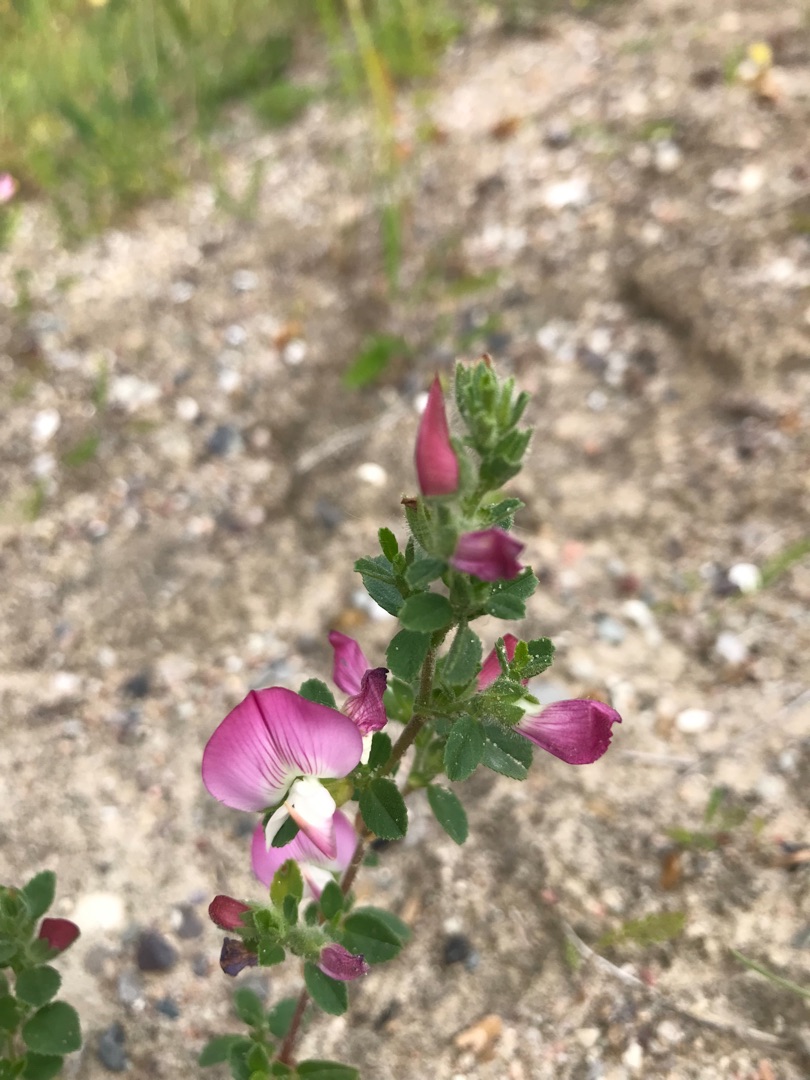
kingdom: Plantae
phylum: Tracheophyta
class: Magnoliopsida
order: Apiales
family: Apiaceae
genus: Daucus
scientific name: Daucus carota
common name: Gulerod
